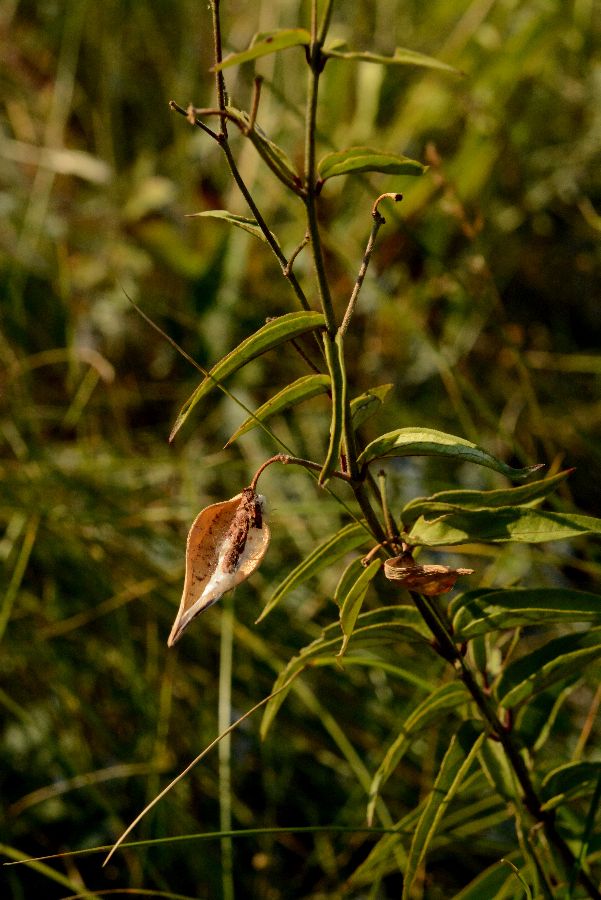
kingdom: Plantae
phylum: Tracheophyta
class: Magnoliopsida
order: Gentianales
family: Apocynaceae
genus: Vincetoxicum
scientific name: Vincetoxicum hirundinaria
